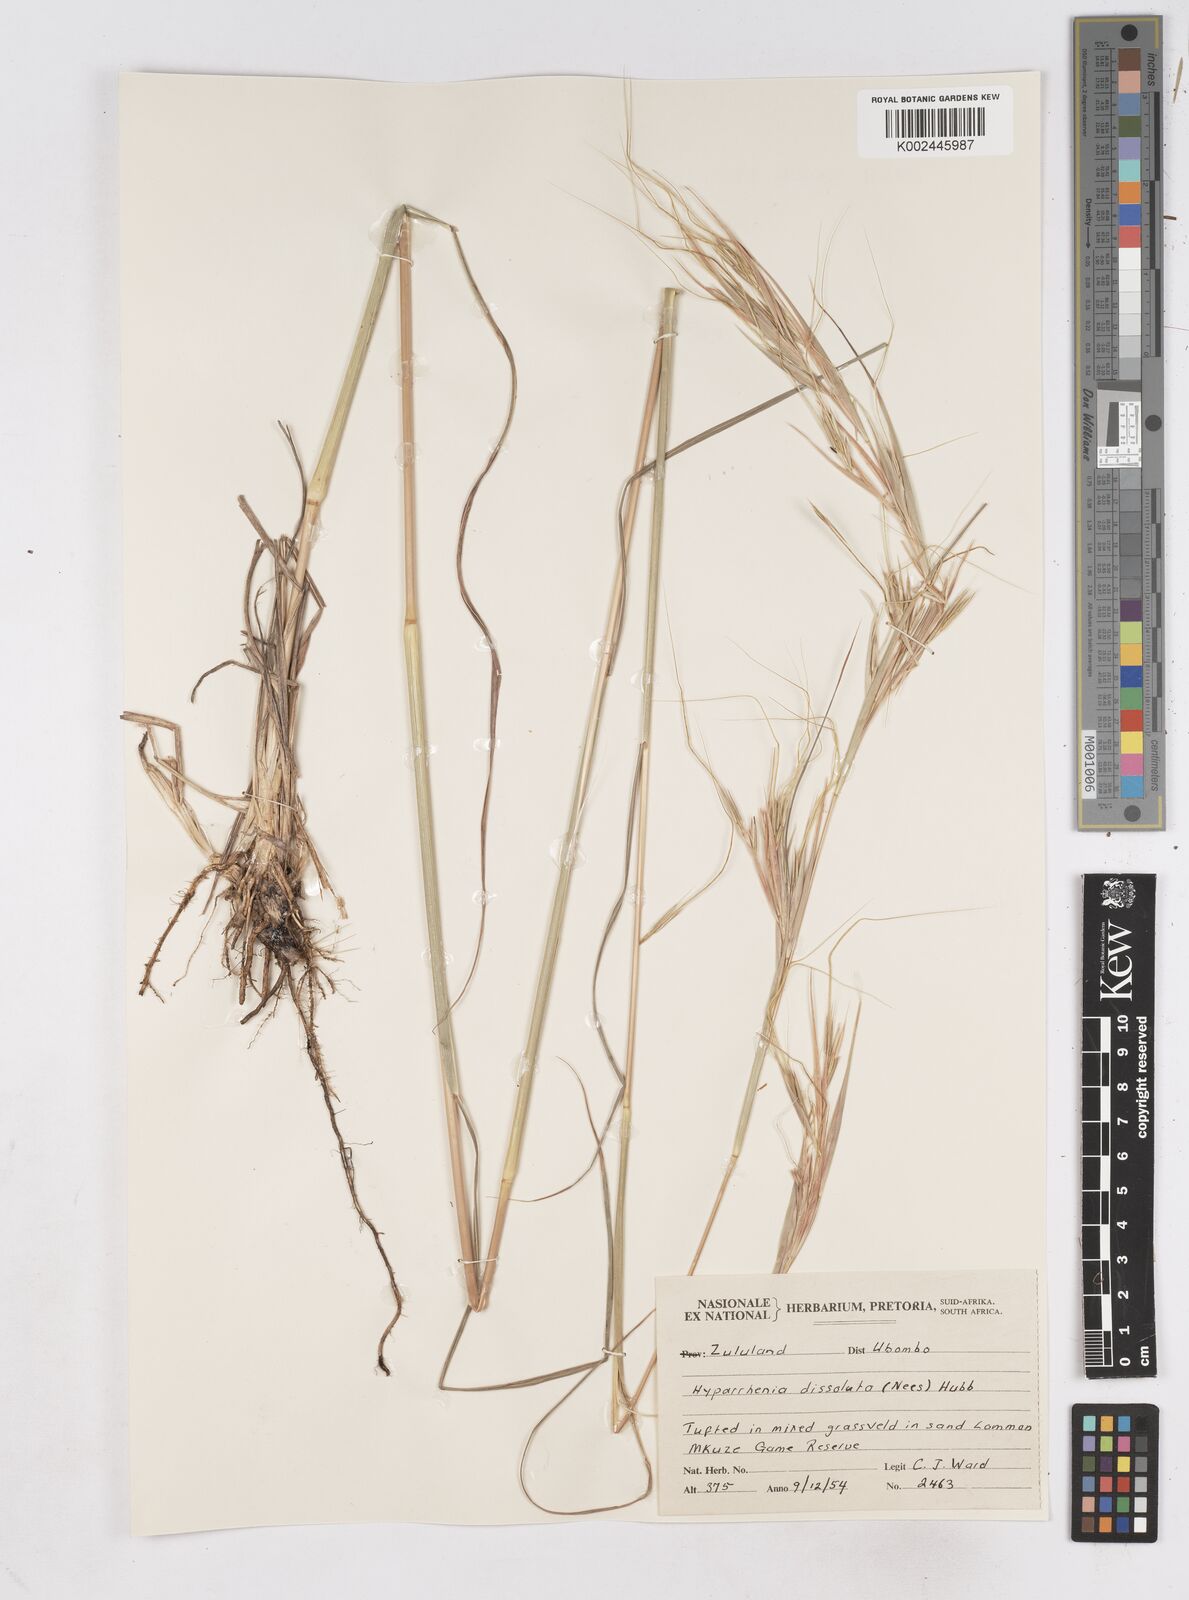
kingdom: Plantae
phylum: Tracheophyta
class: Liliopsida
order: Poales
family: Poaceae
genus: Hyperthelia
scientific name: Hyperthelia dissoluta
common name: Yellow thatching grass
